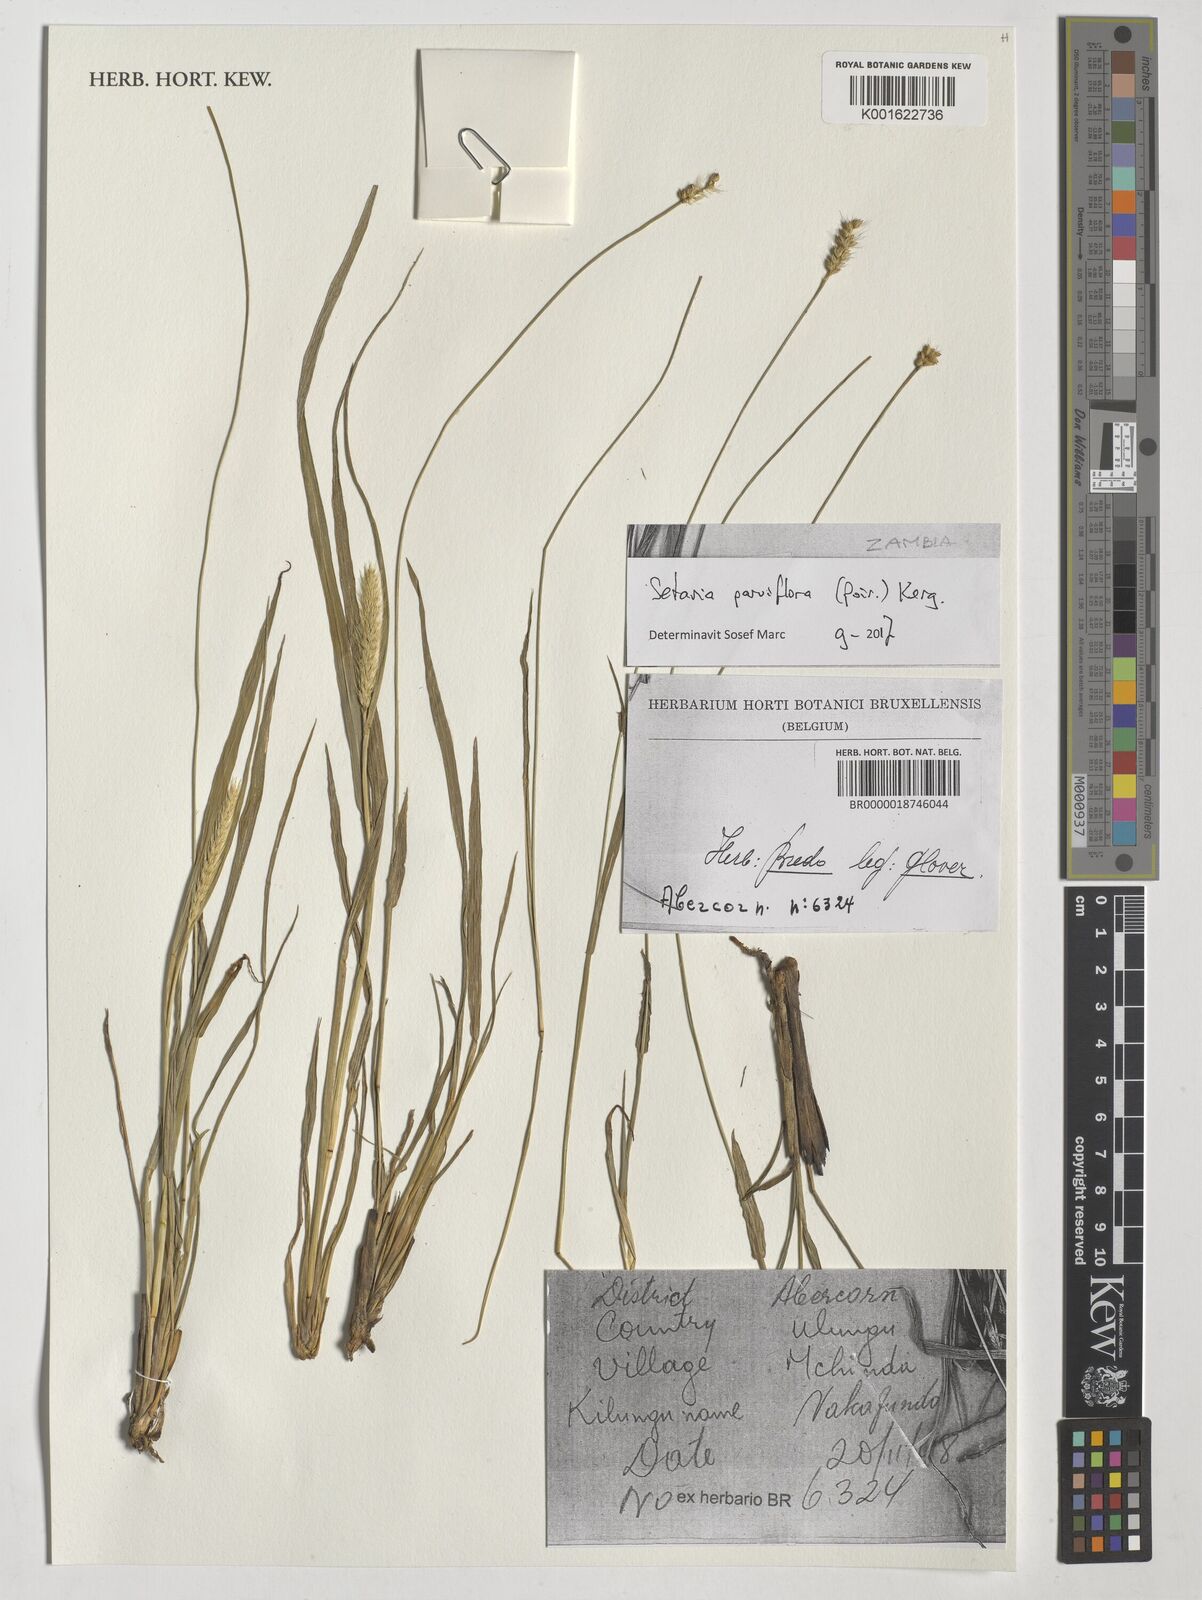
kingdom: Plantae
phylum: Tracheophyta
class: Liliopsida
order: Poales
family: Poaceae
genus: Setaria
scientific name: Setaria parviflora
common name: Knotroot bristle-grass
